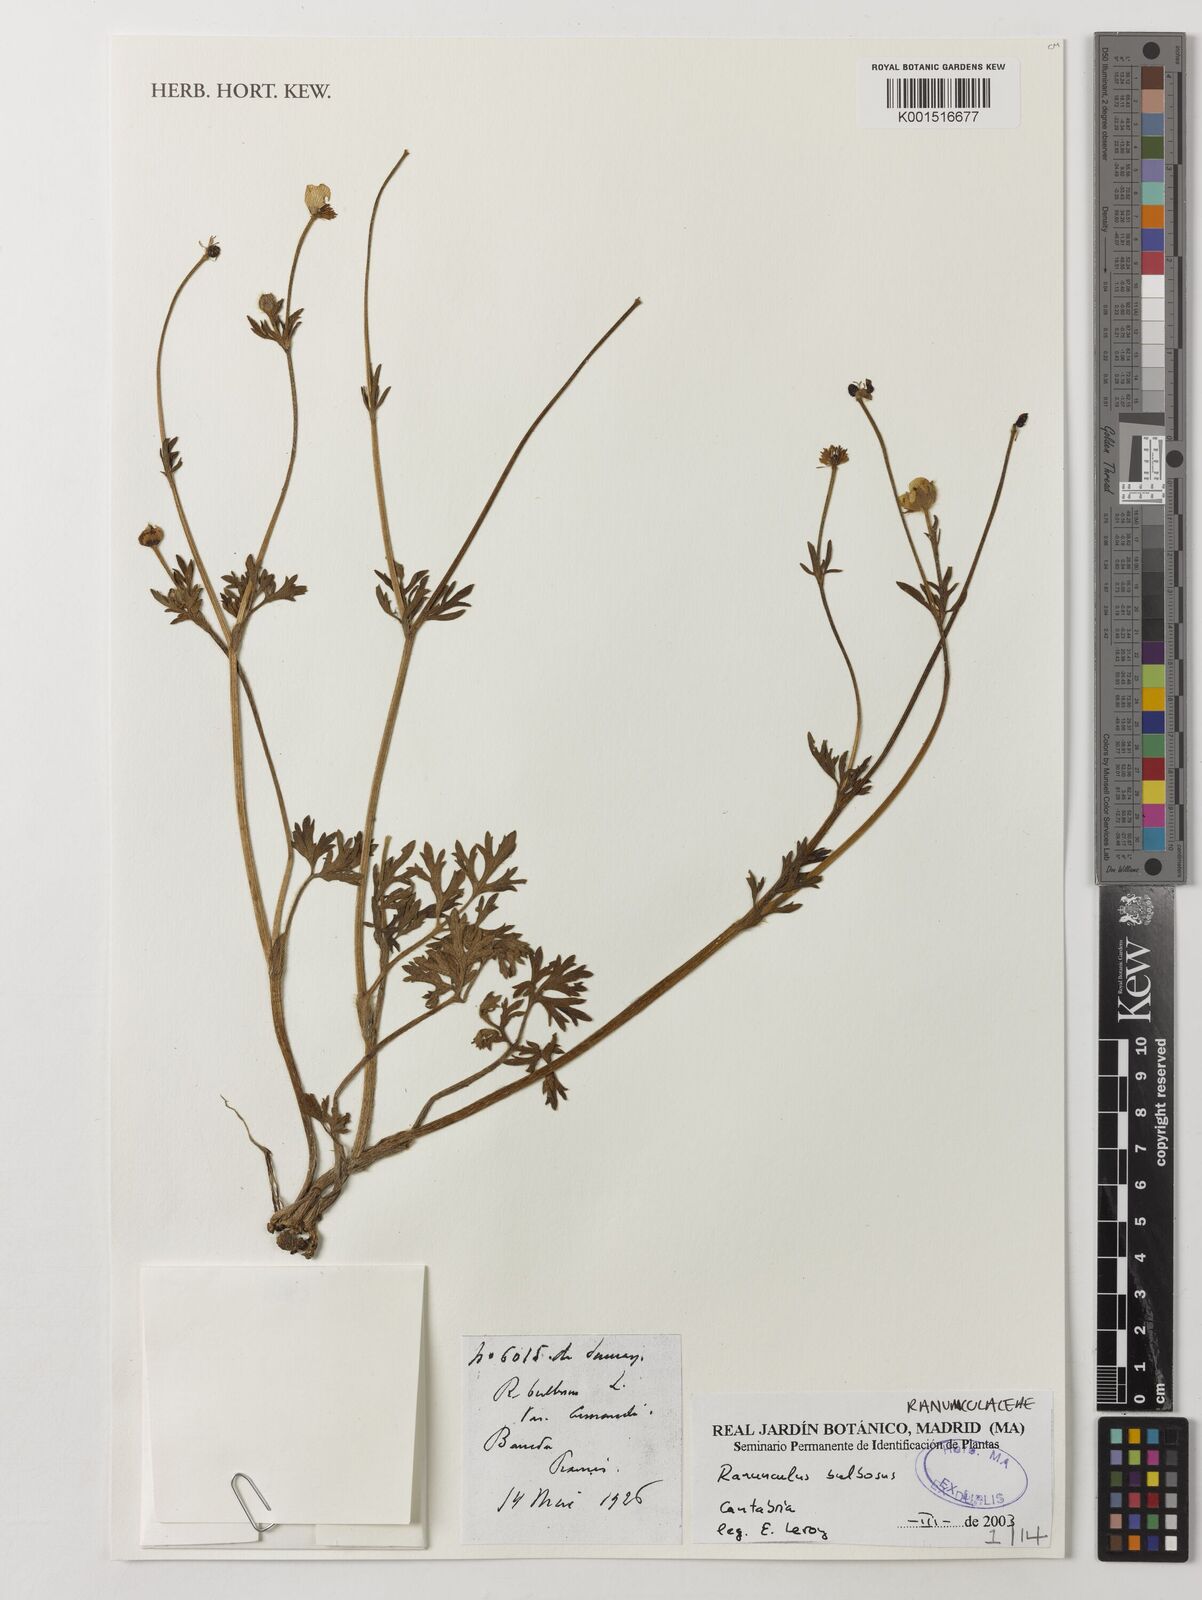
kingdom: Plantae
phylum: Tracheophyta
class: Magnoliopsida
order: Ranunculales
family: Ranunculaceae
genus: Ranunculus
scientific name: Ranunculus bulbosus
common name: Bulbous buttercup
